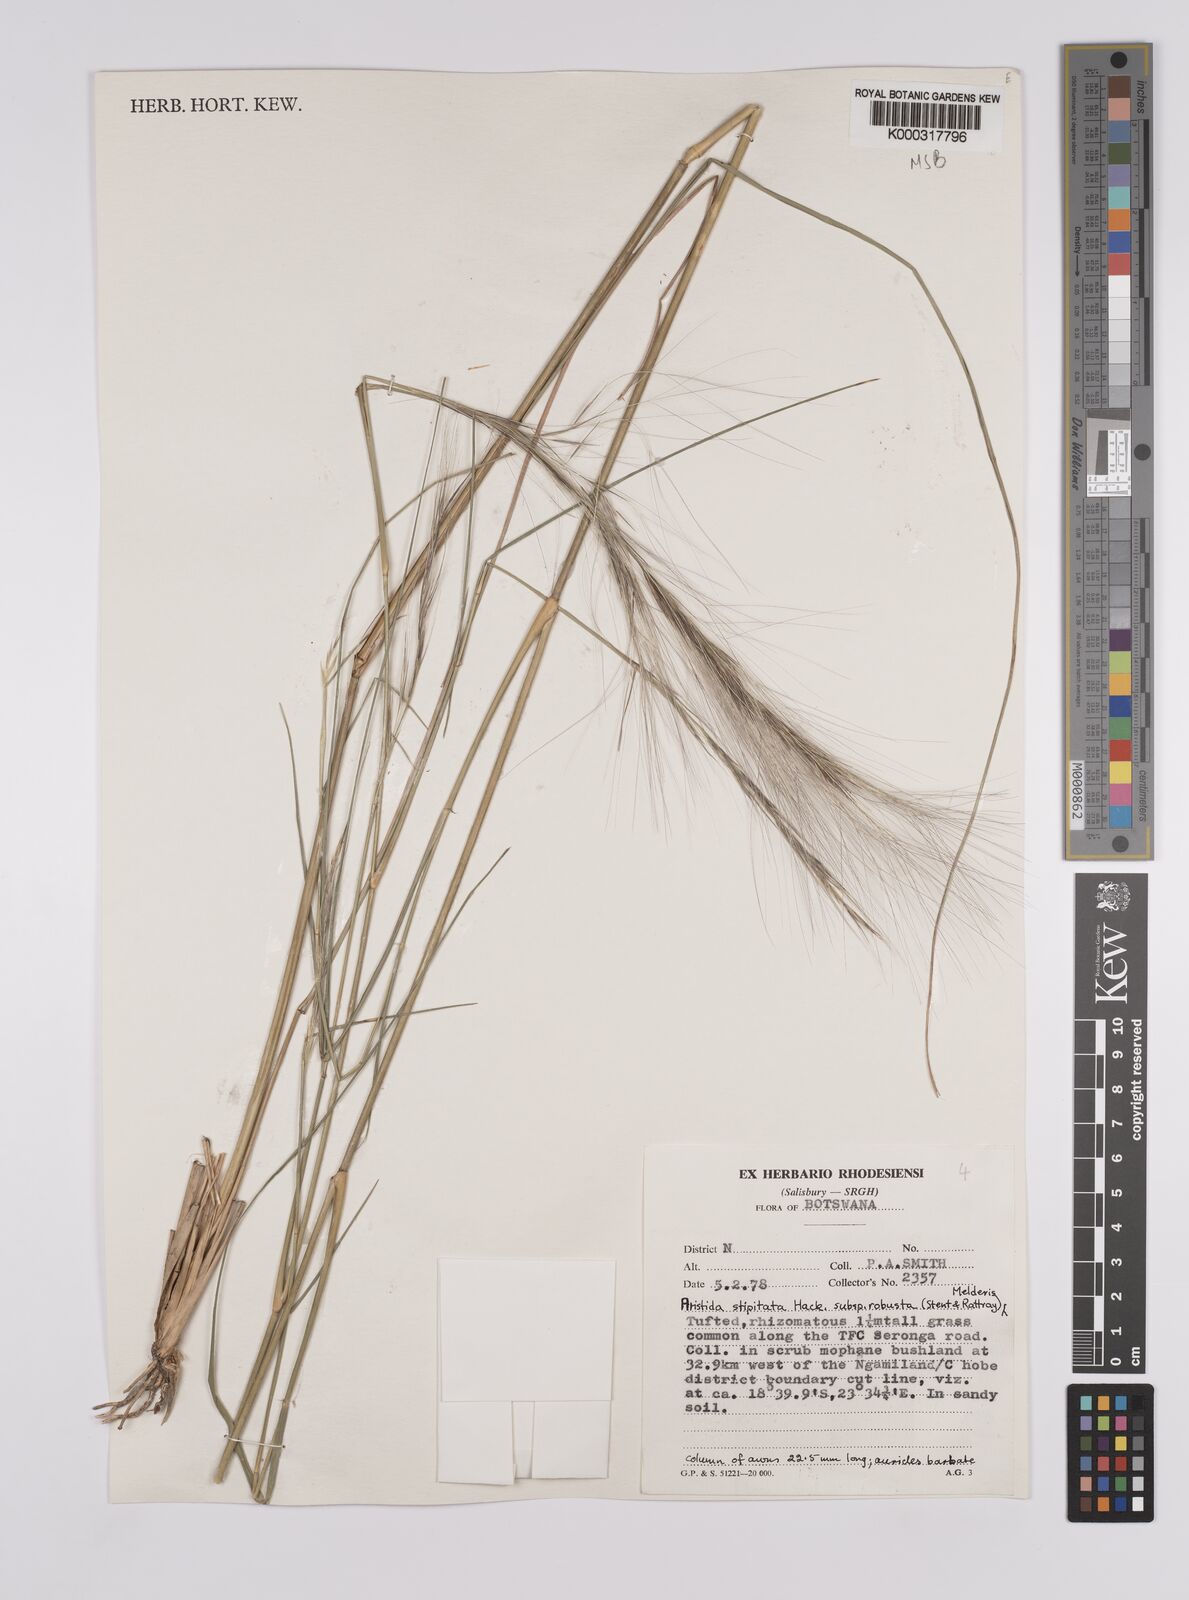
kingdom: Plantae
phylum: Tracheophyta
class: Liliopsida
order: Poales
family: Poaceae
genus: Aristida
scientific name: Aristida stipitata
